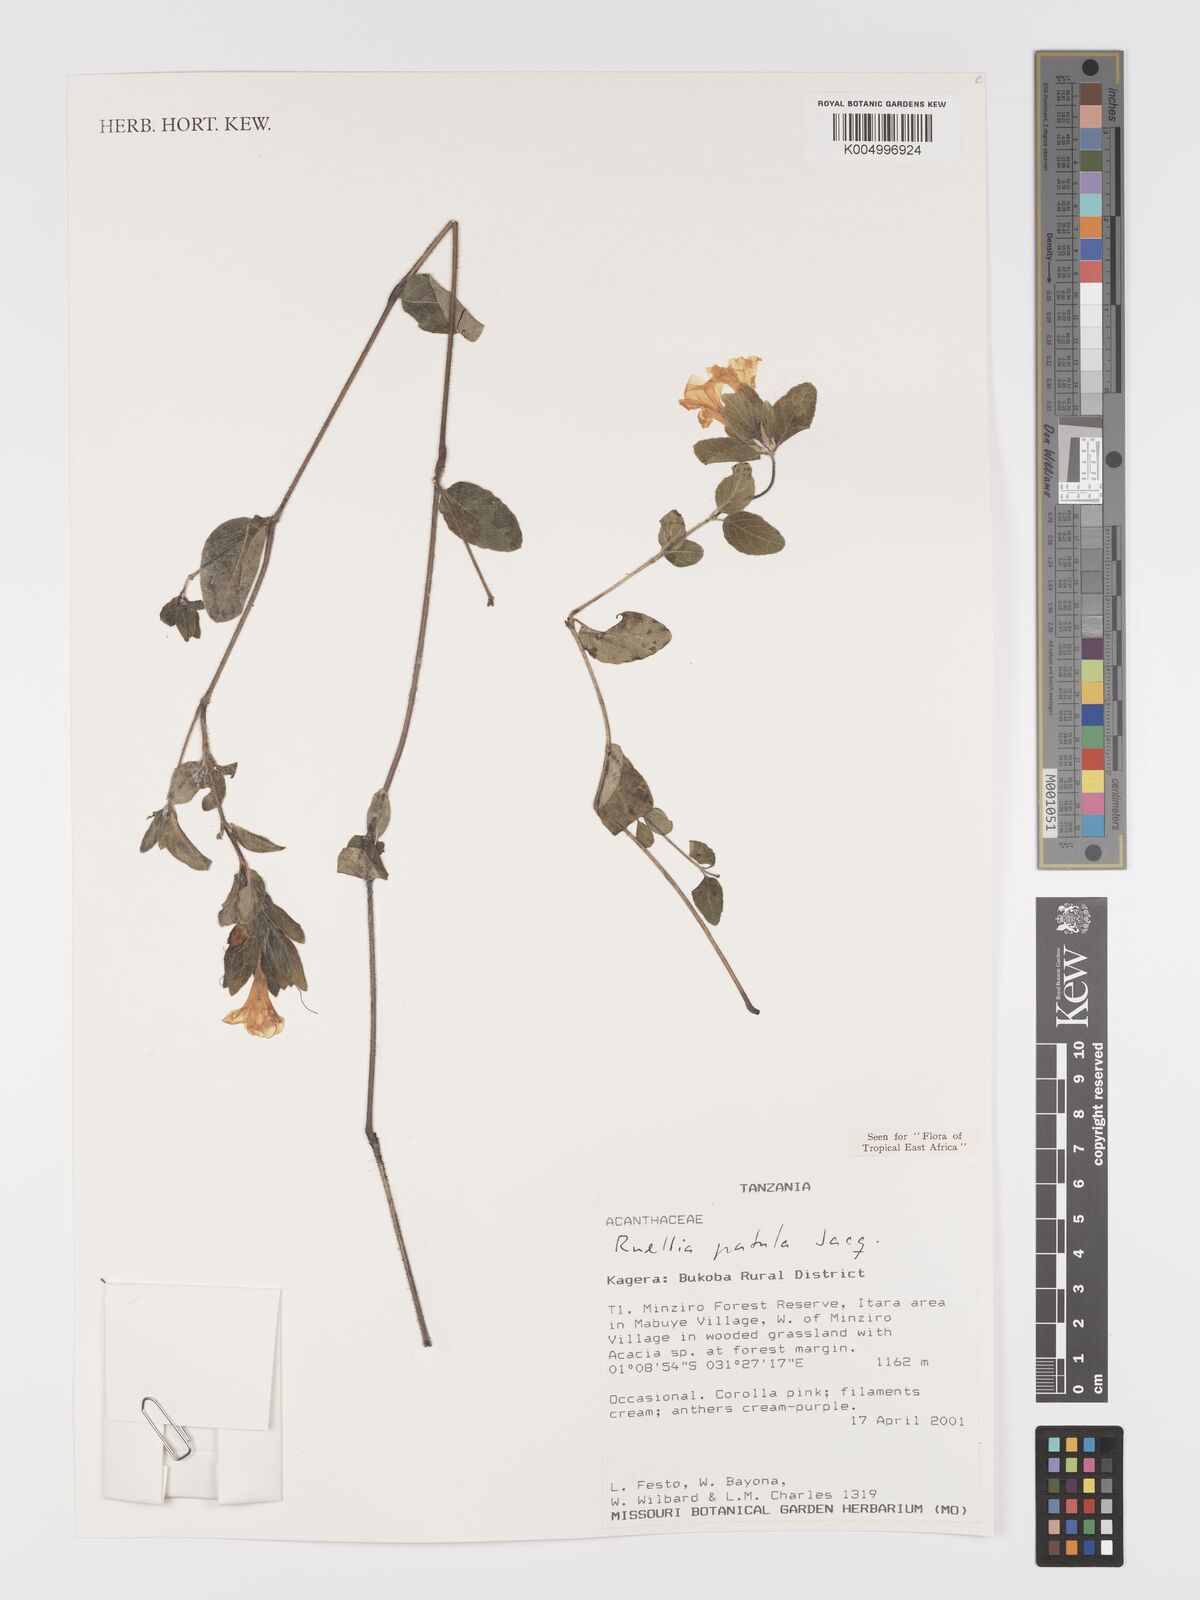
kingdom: Plantae
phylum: Tracheophyta
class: Magnoliopsida
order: Lamiales
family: Acanthaceae
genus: Ruellia
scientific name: Ruellia patula
